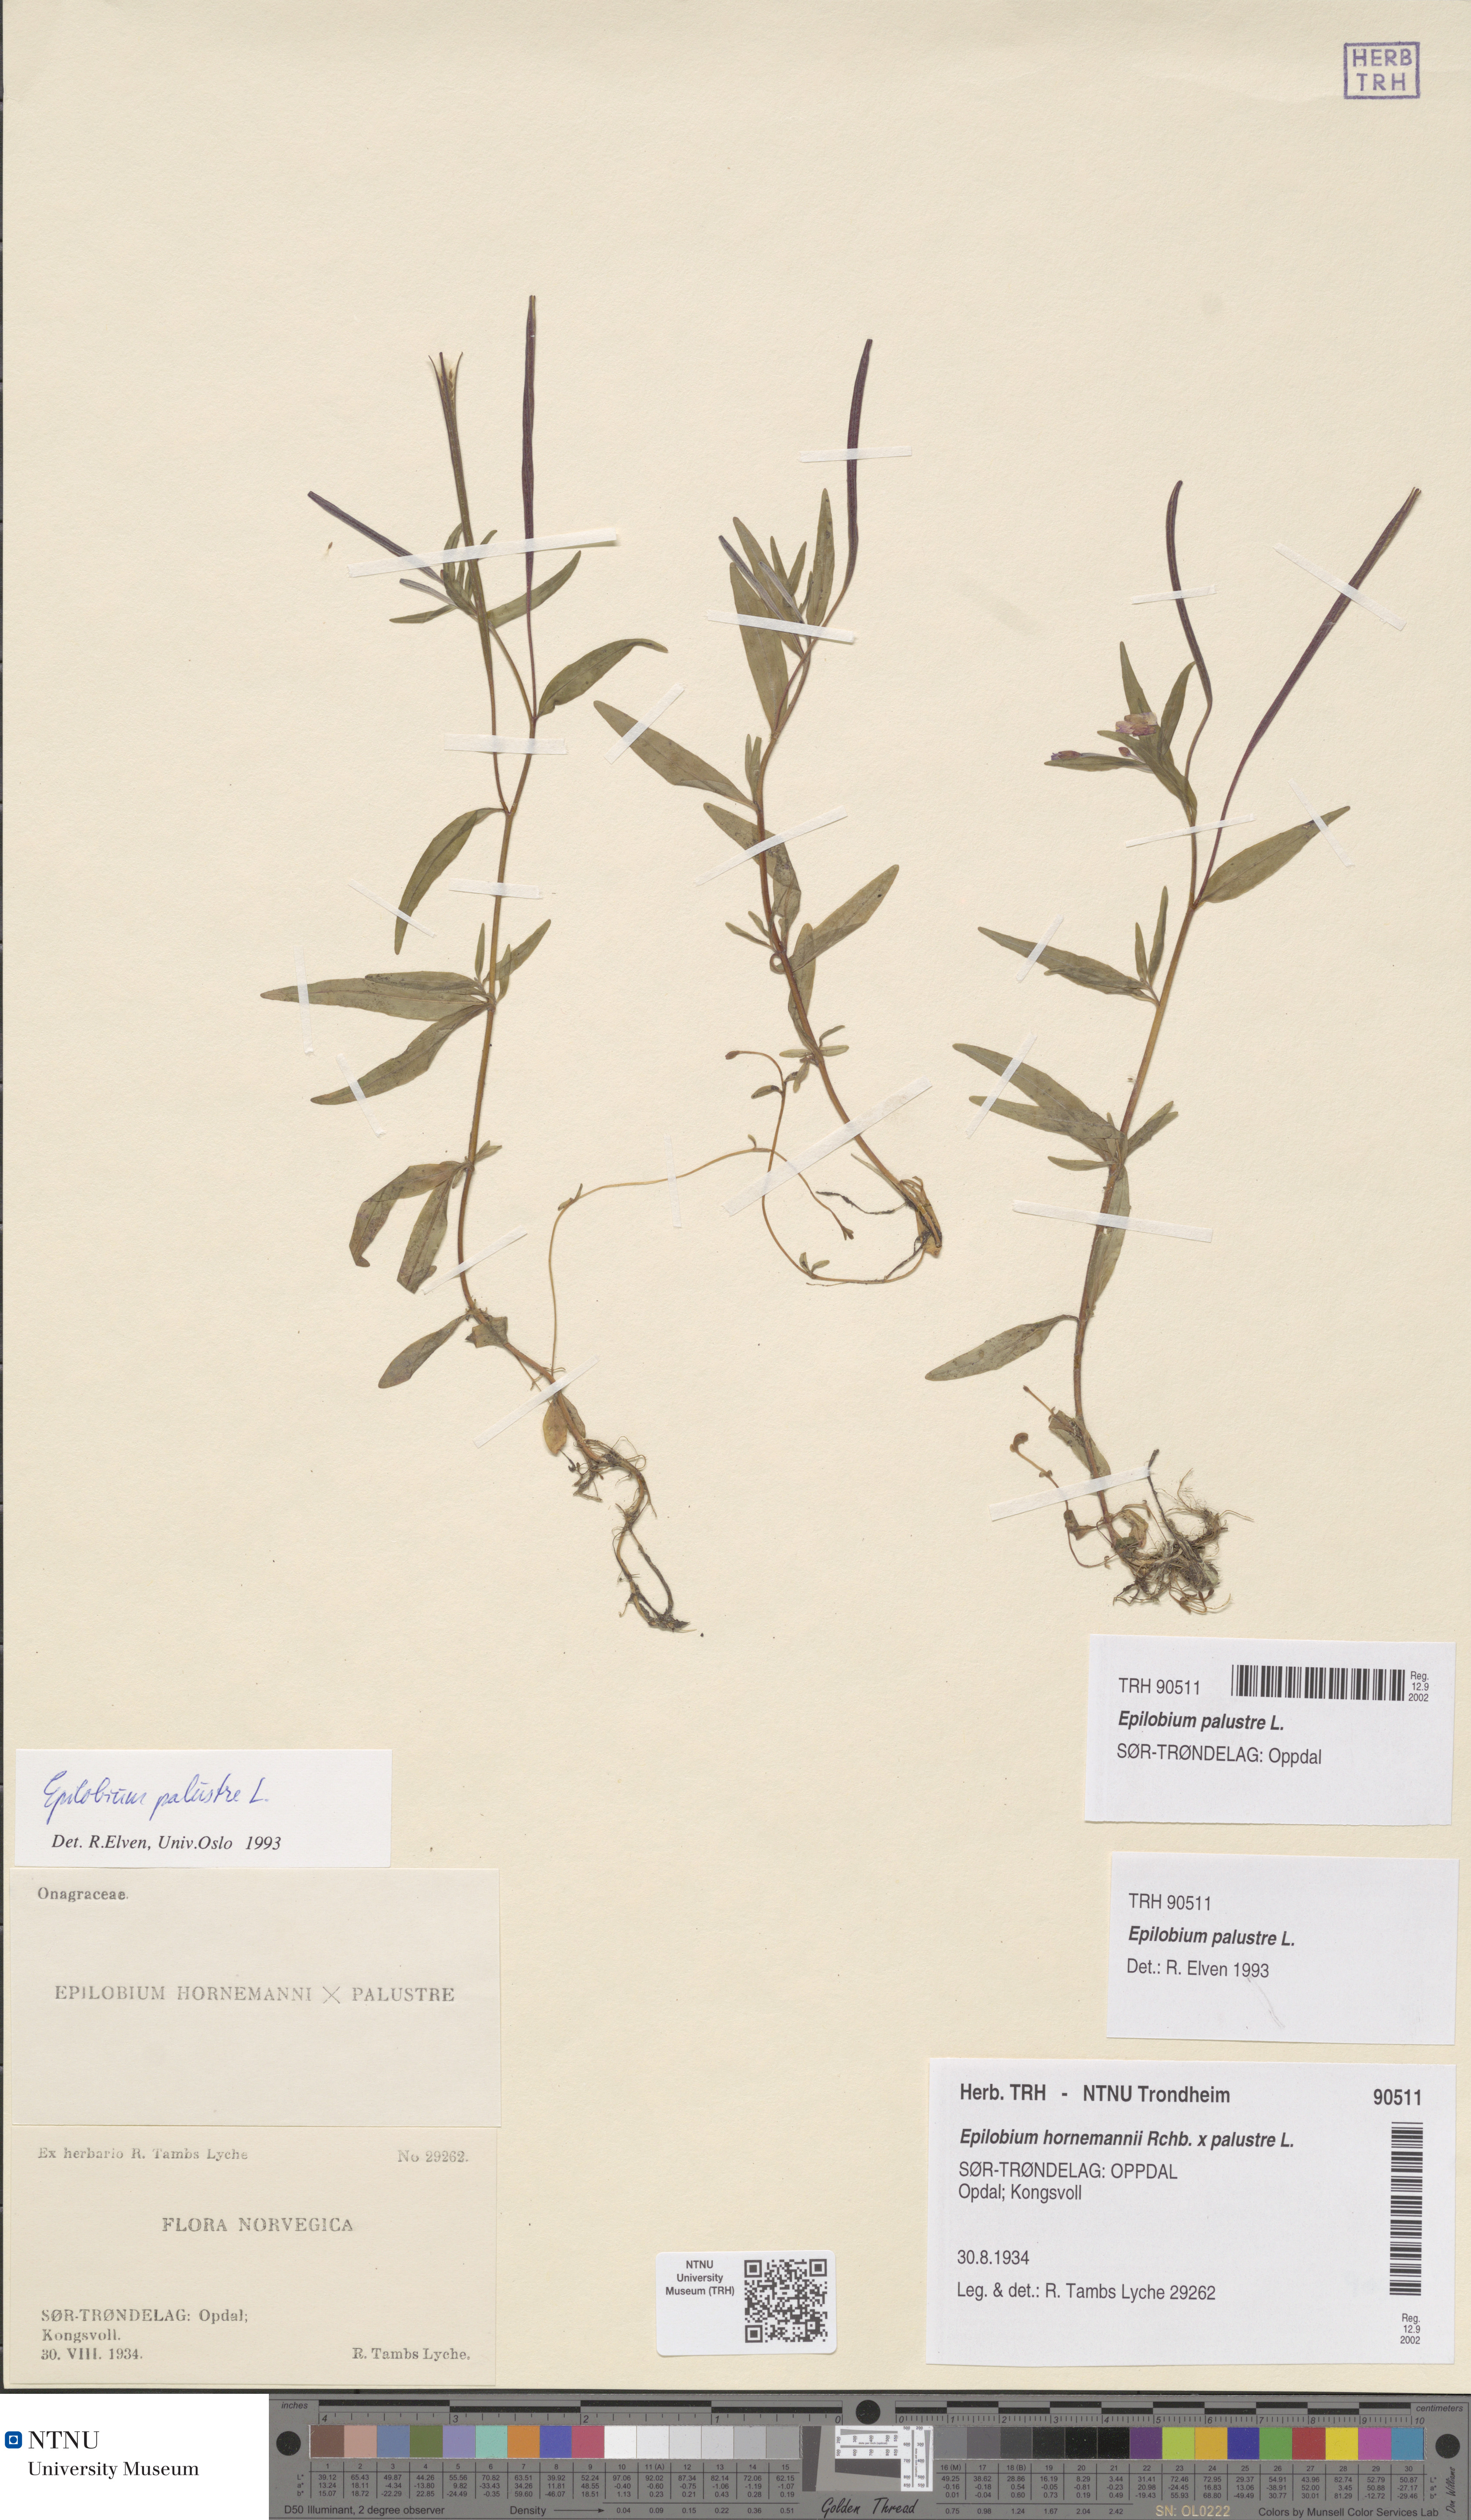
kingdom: Plantae
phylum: Tracheophyta
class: Magnoliopsida
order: Myrtales
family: Onagraceae
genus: Epilobium
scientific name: Epilobium palustre
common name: Marsh willowherb
